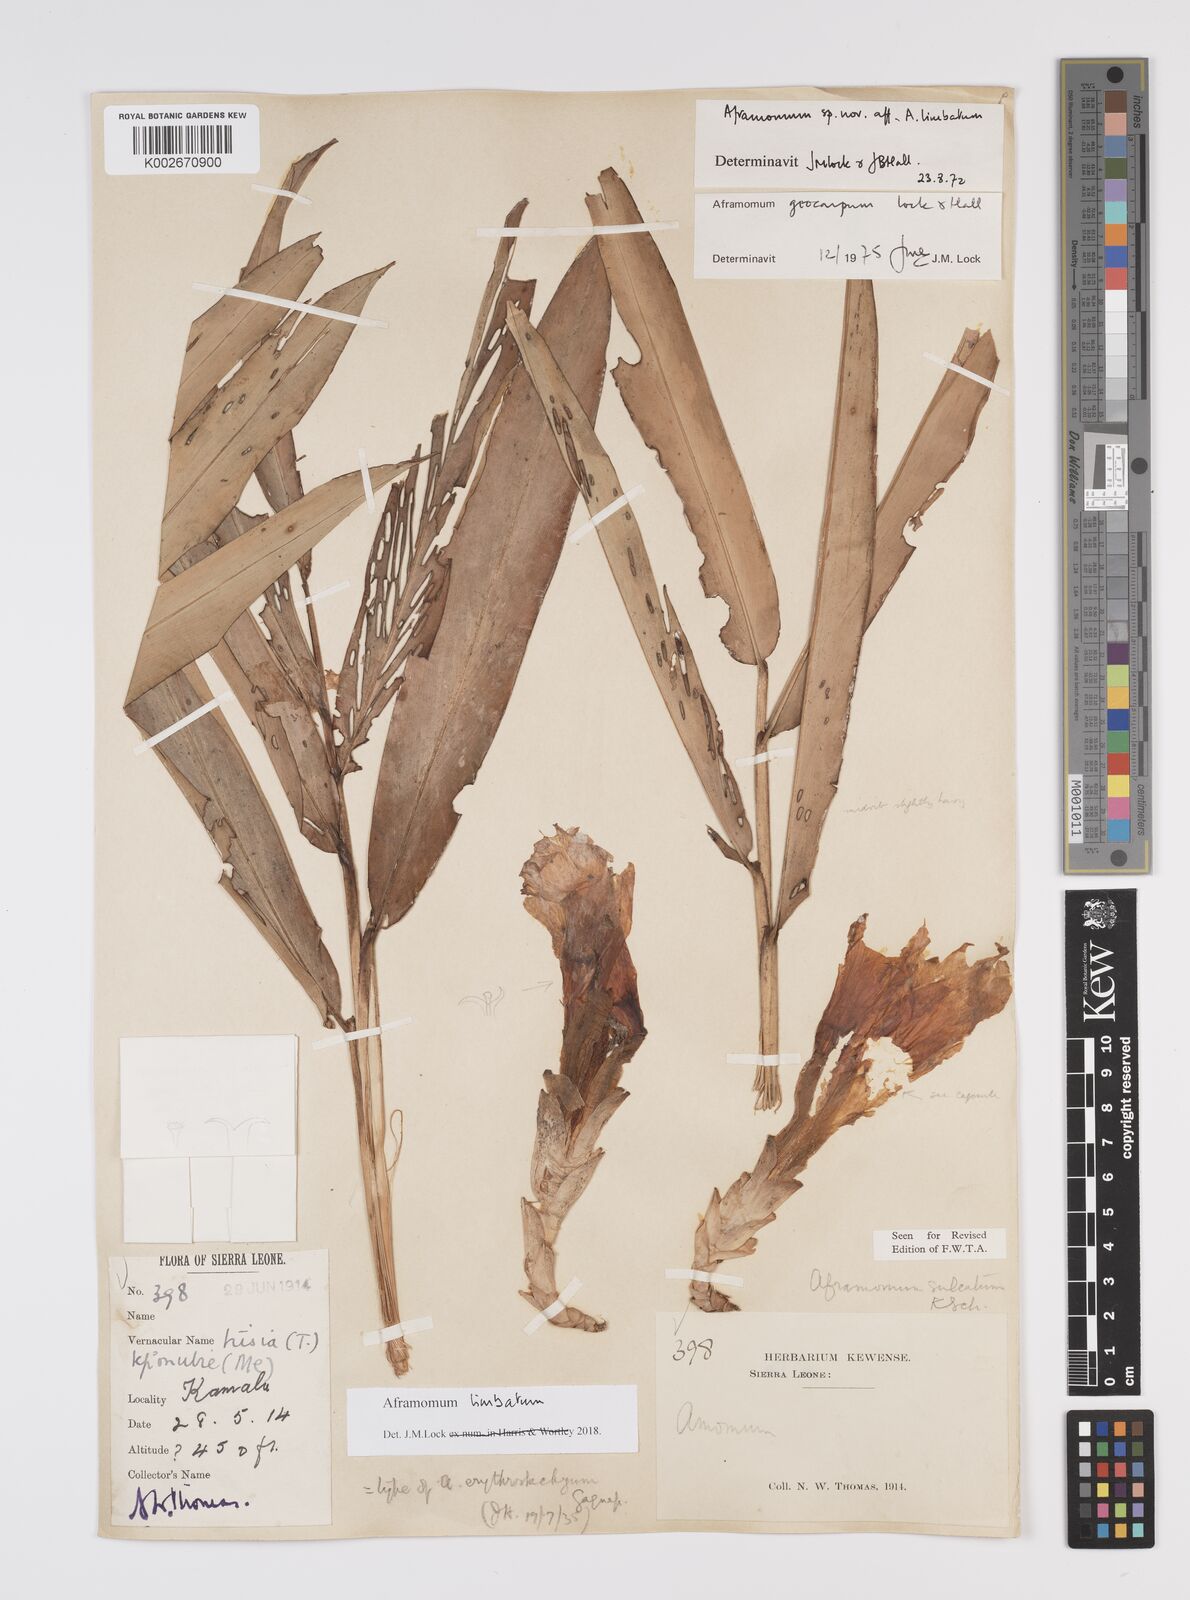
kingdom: Plantae
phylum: Tracheophyta
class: Liliopsida
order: Zingiberales
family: Zingiberaceae
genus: Aframomum
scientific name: Aframomum limbatum
